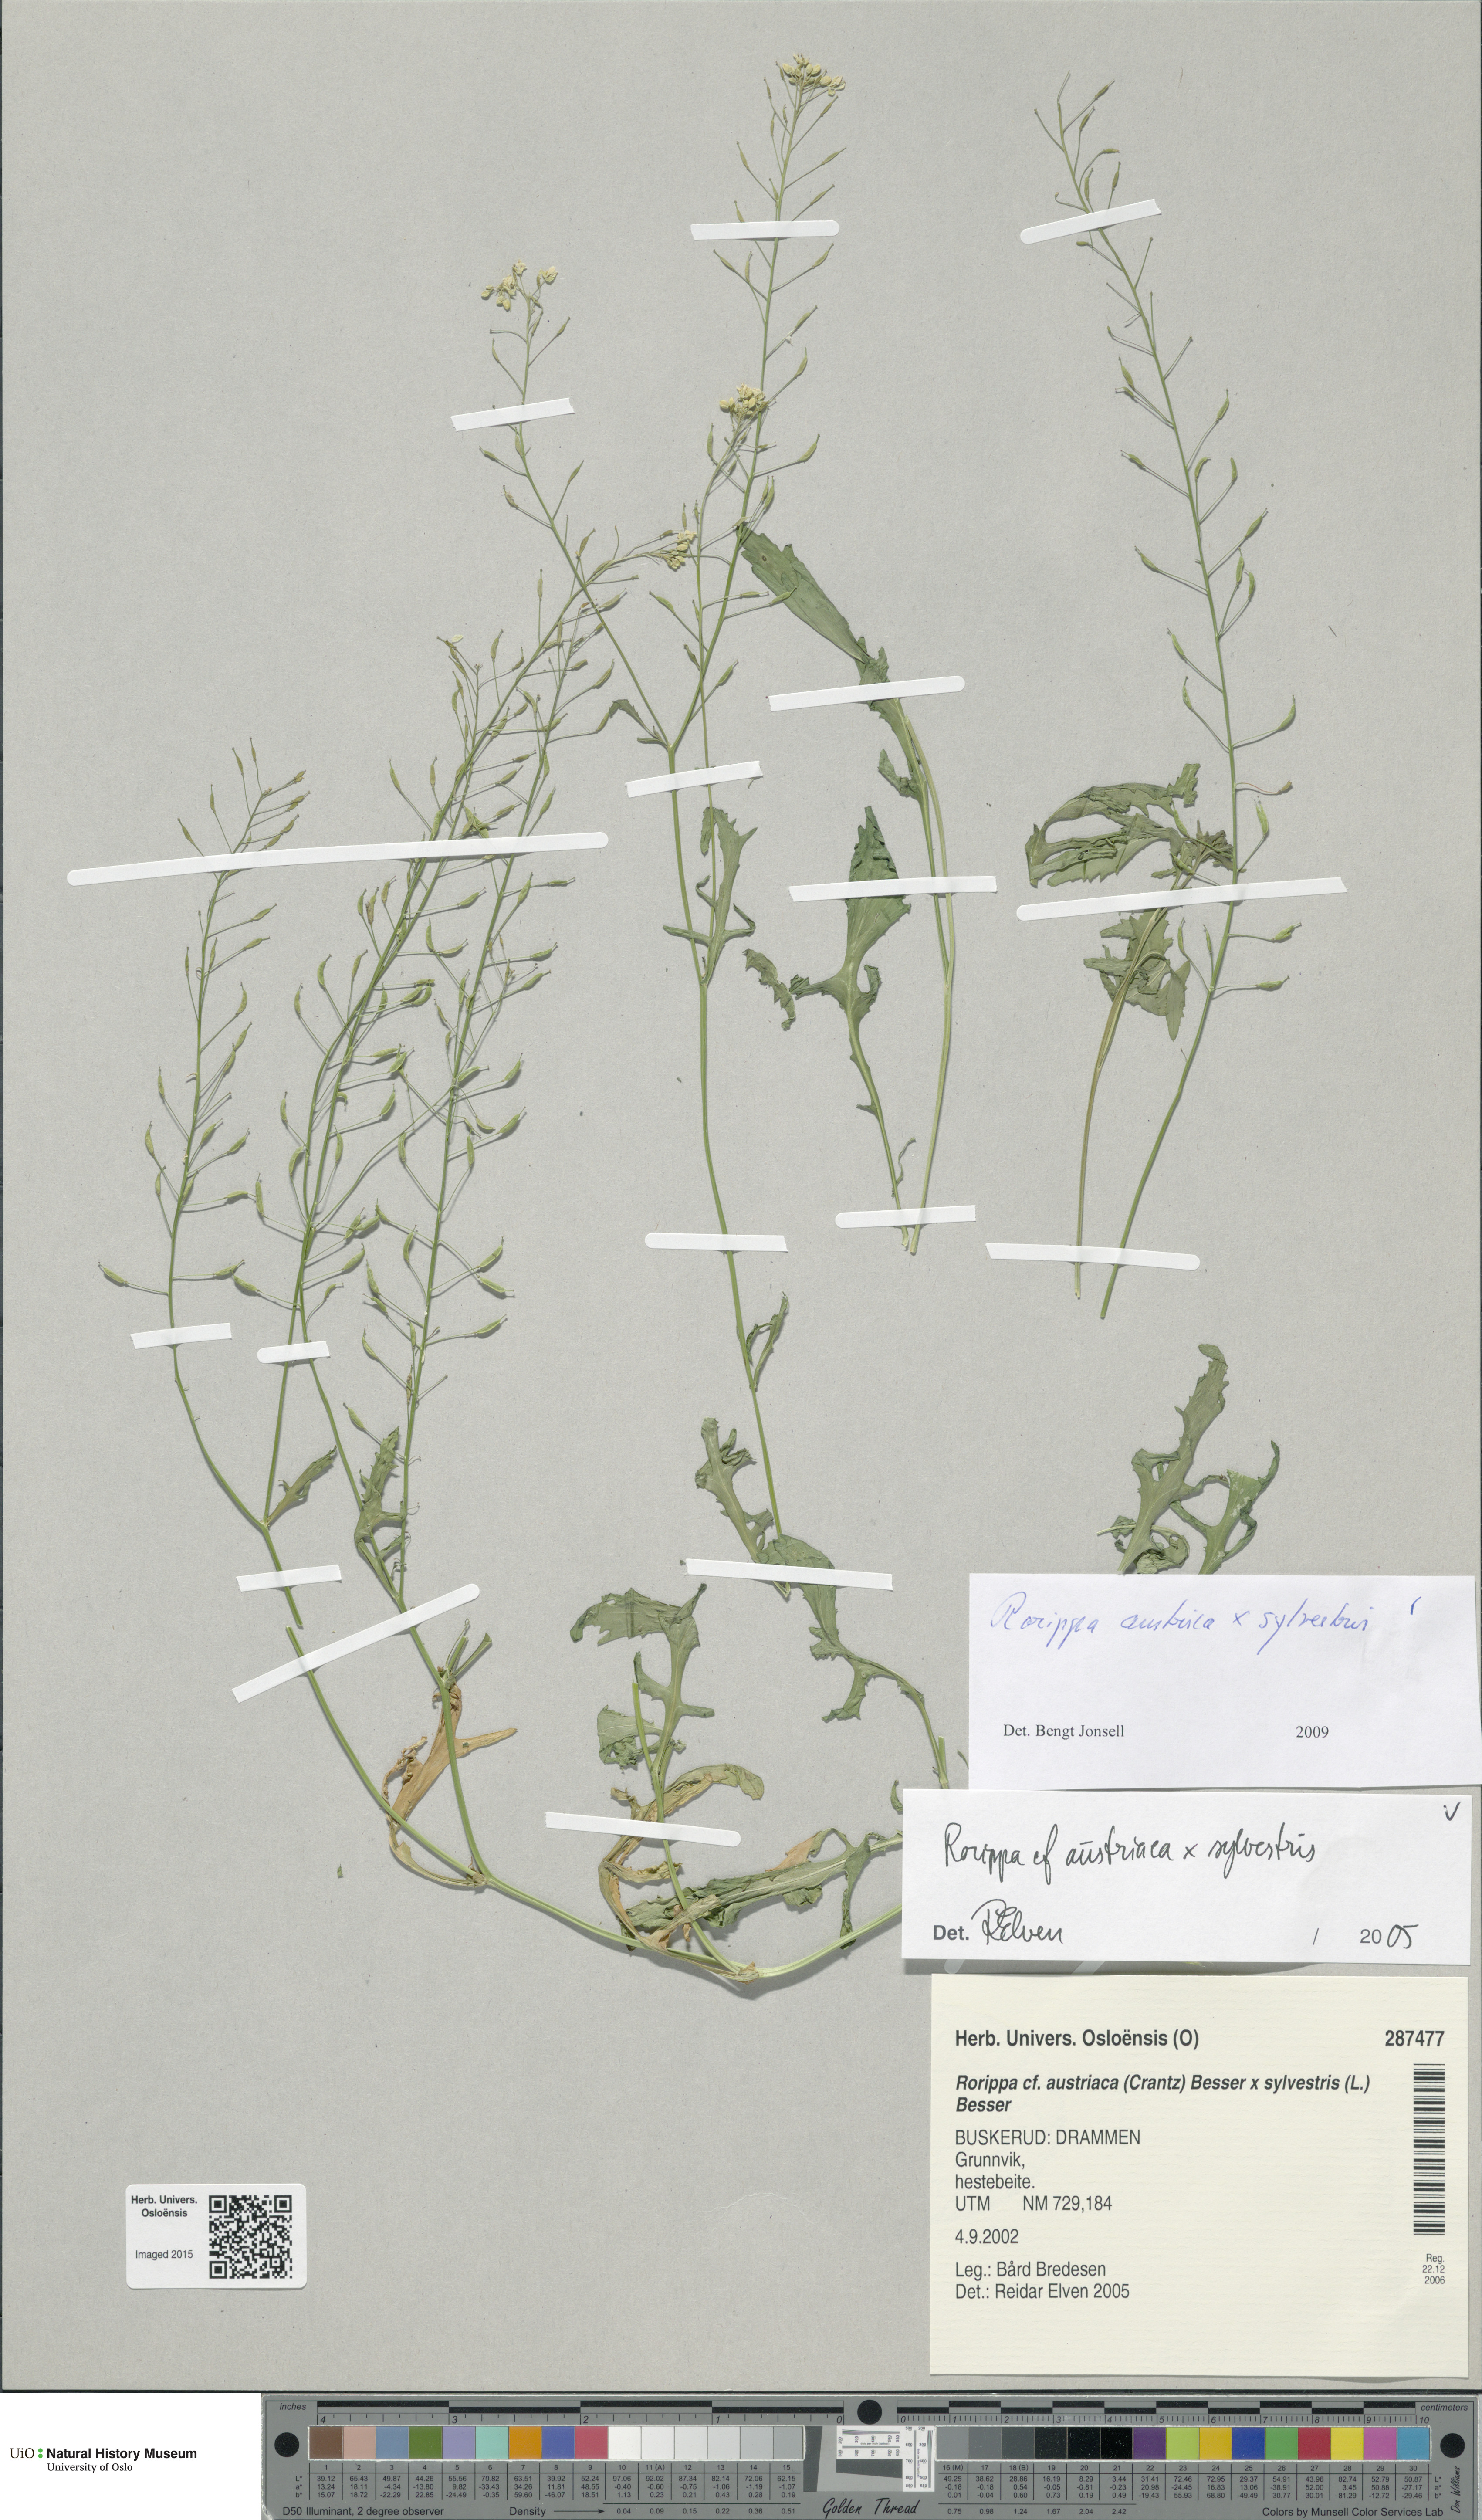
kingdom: Plantae
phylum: Tracheophyta
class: Magnoliopsida
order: Brassicales
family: Brassicaceae
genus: Rorippa
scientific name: Rorippa
